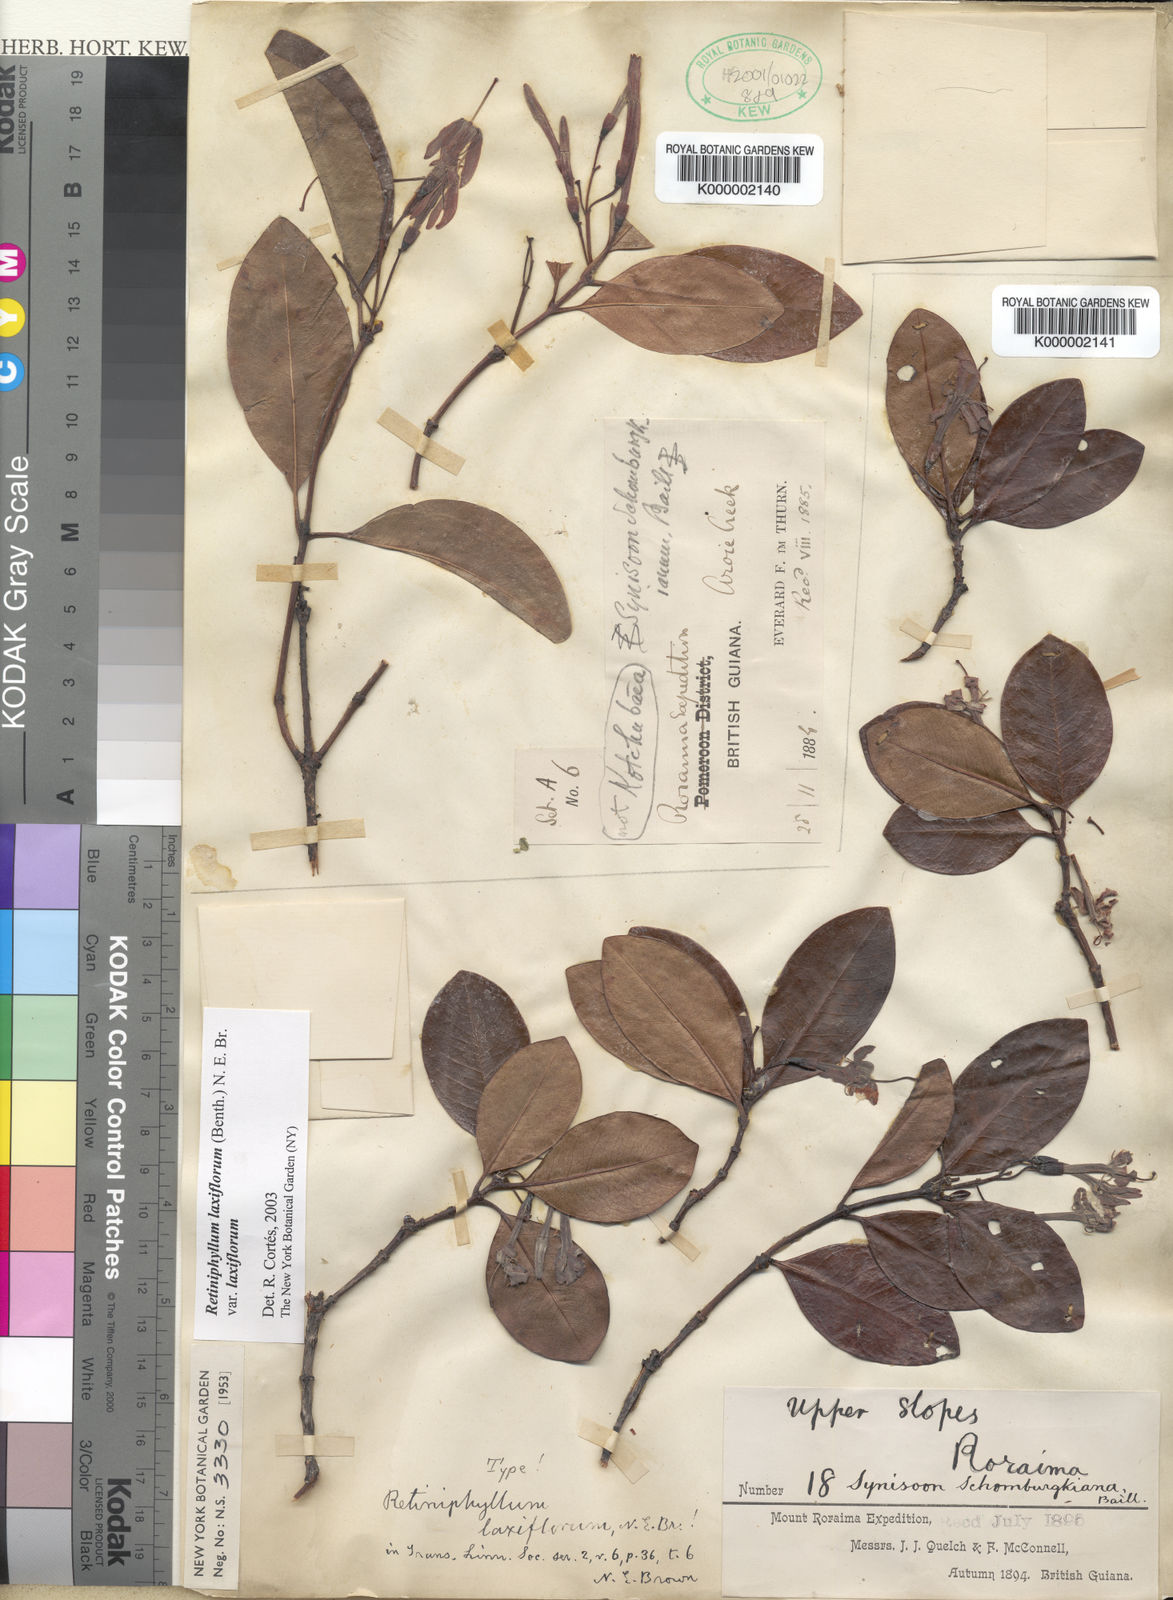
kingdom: Plantae
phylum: Tracheophyta
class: Magnoliopsida
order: Gentianales
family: Rubiaceae
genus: Retiniphyllum
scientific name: Retiniphyllum laxiflorum
